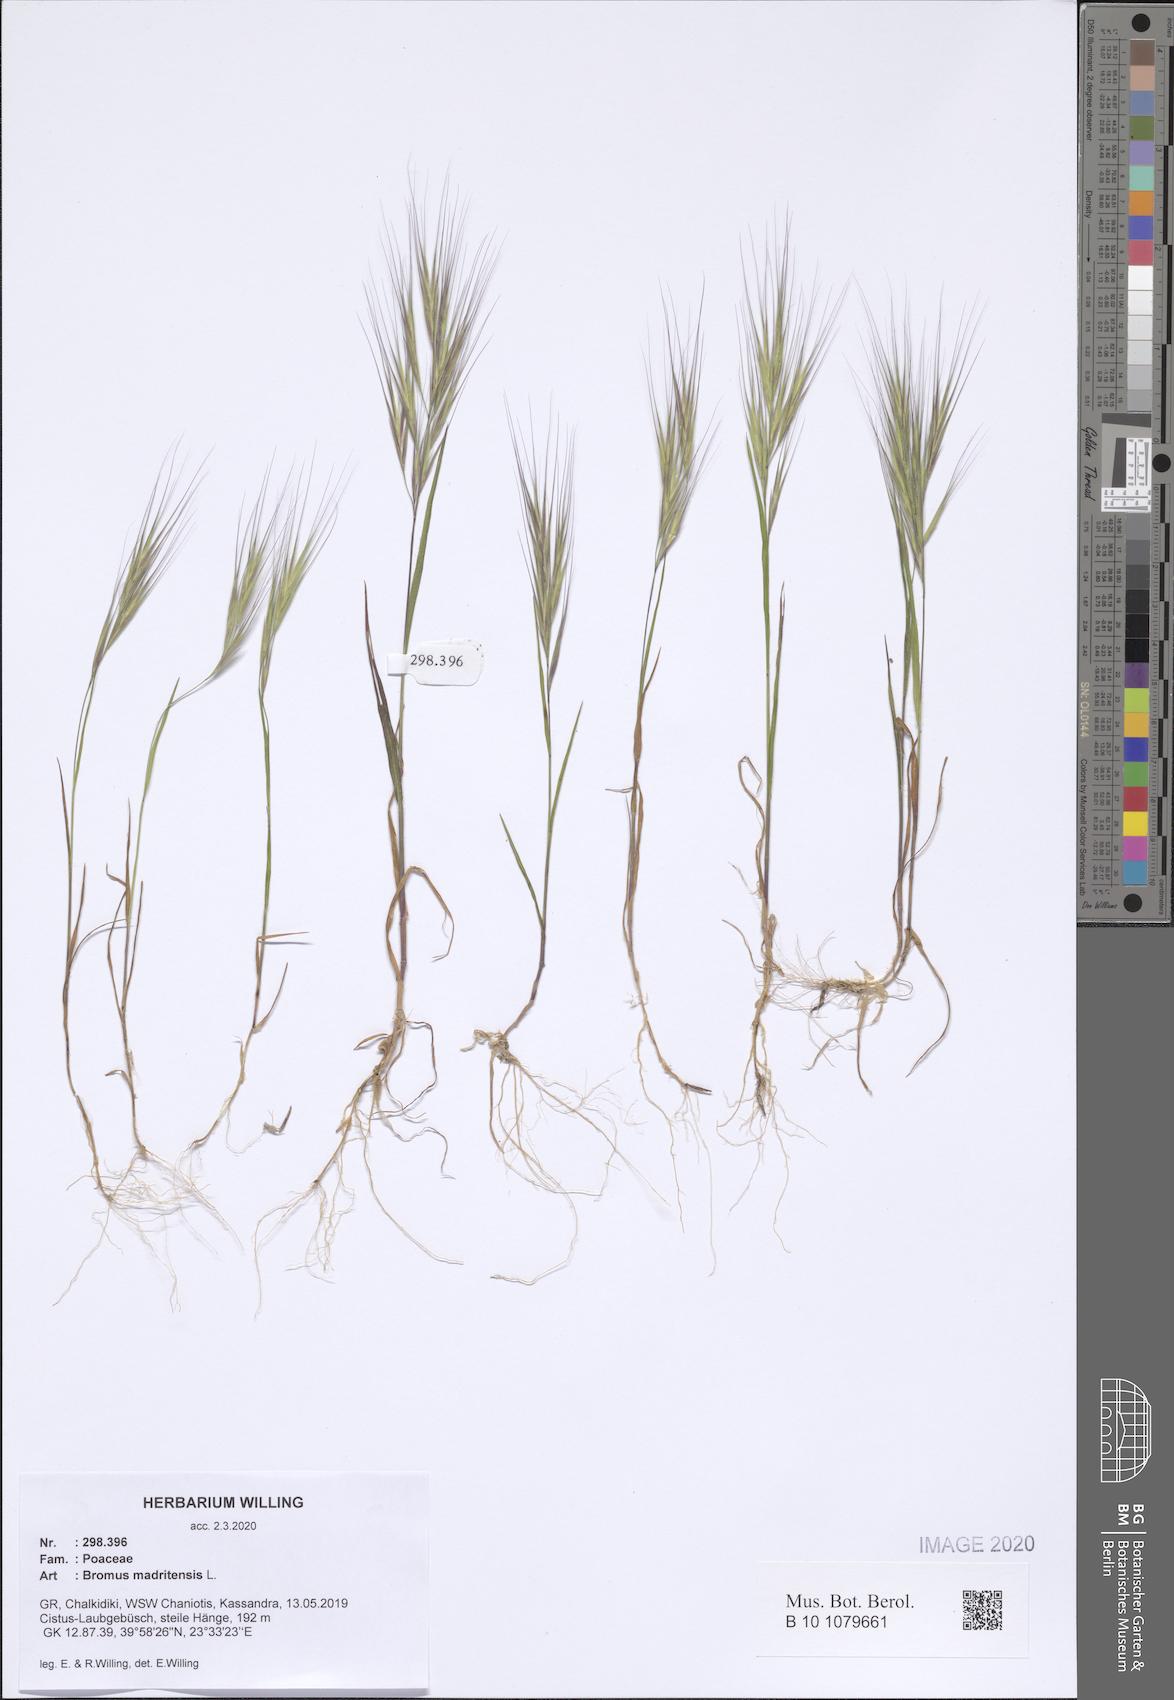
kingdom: Plantae
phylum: Tracheophyta
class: Liliopsida
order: Poales
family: Poaceae
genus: Bromus
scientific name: Bromus madritensis
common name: Compact brome
